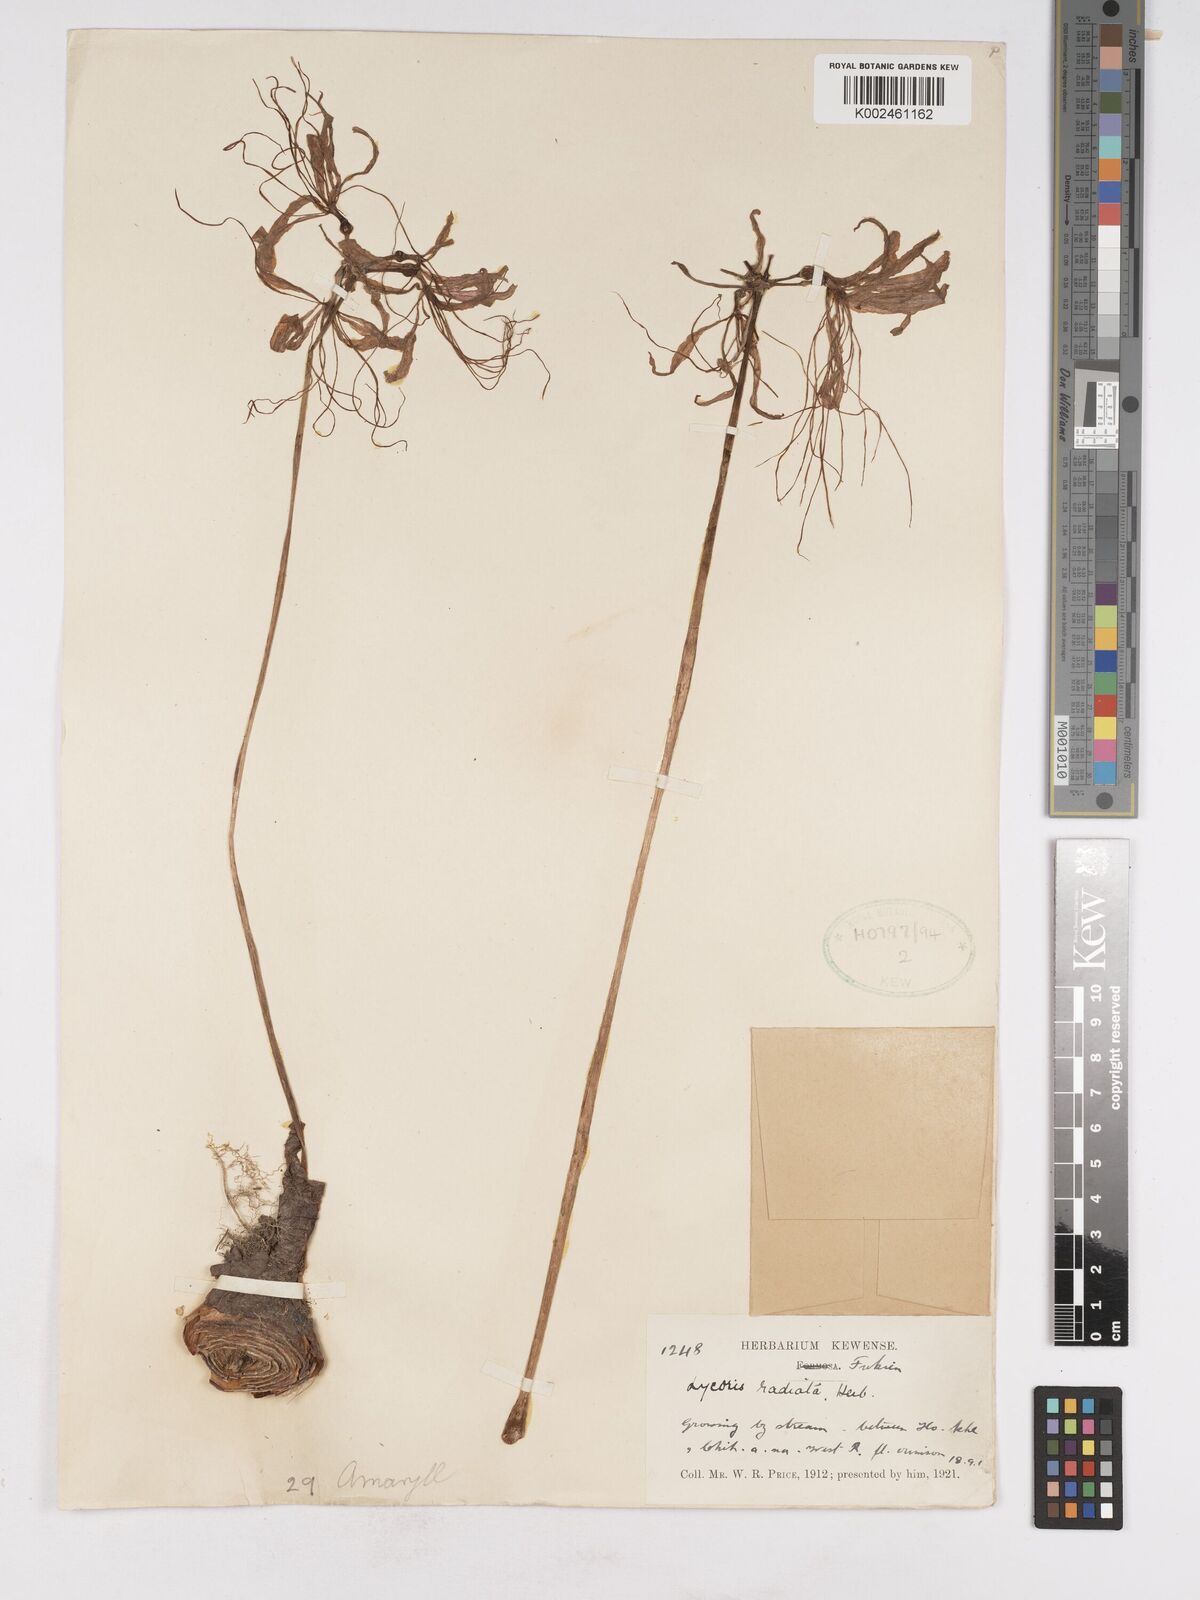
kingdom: Plantae
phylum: Tracheophyta
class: Liliopsida
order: Asparagales
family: Amaryllidaceae
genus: Lycoris
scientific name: Lycoris radiata
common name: Red spider lily
